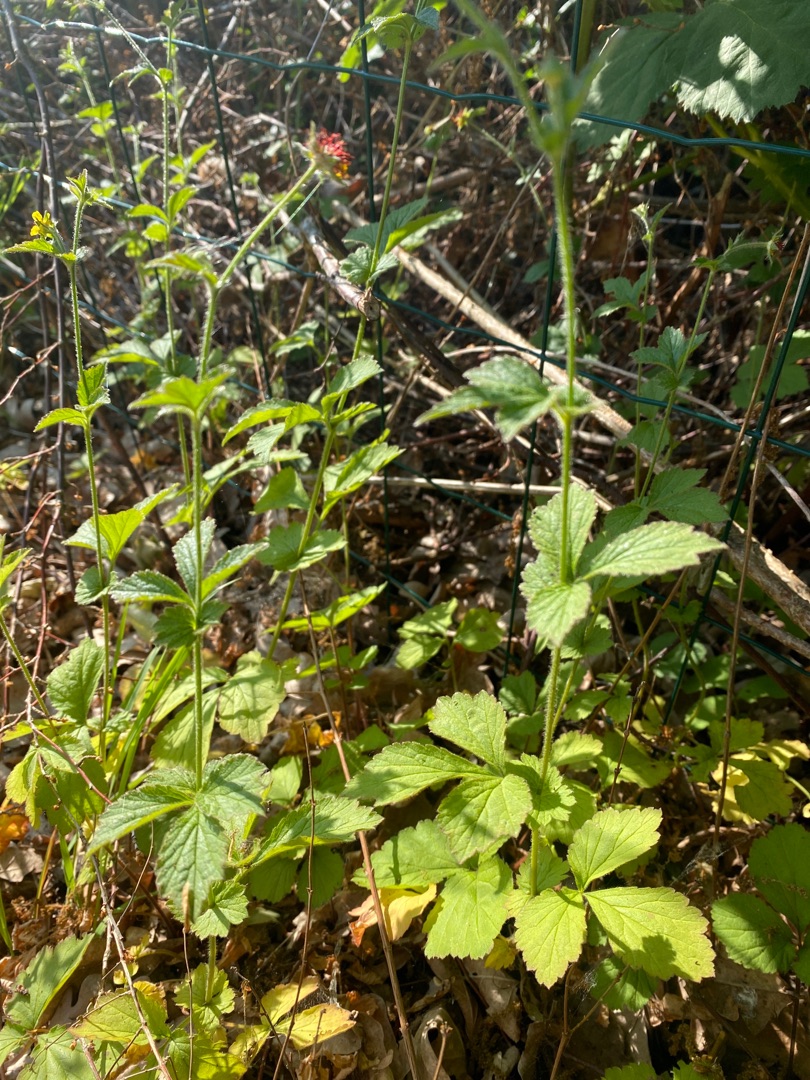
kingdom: Plantae
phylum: Tracheophyta
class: Magnoliopsida
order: Rosales
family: Rosaceae
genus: Geum
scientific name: Geum urbanum
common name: Feber-nellikerod
